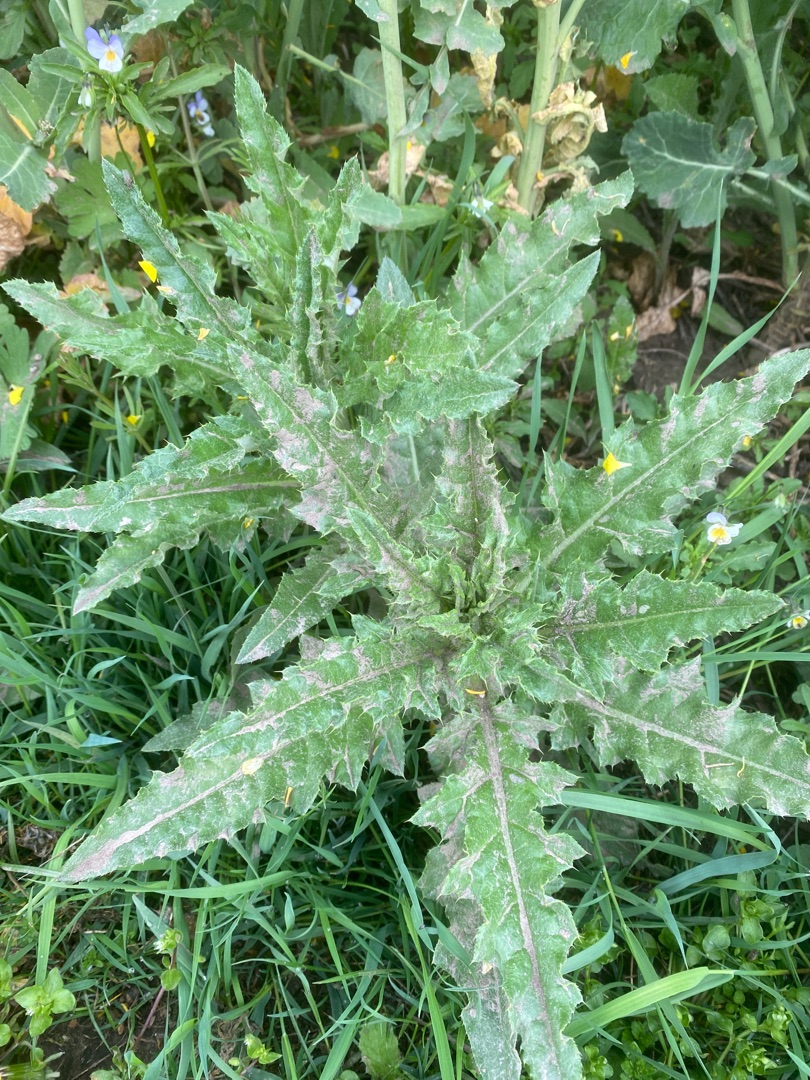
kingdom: Plantae
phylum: Tracheophyta
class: Magnoliopsida
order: Asterales
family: Asteraceae
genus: Cirsium
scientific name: Cirsium arvense
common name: Ager-tidsel
